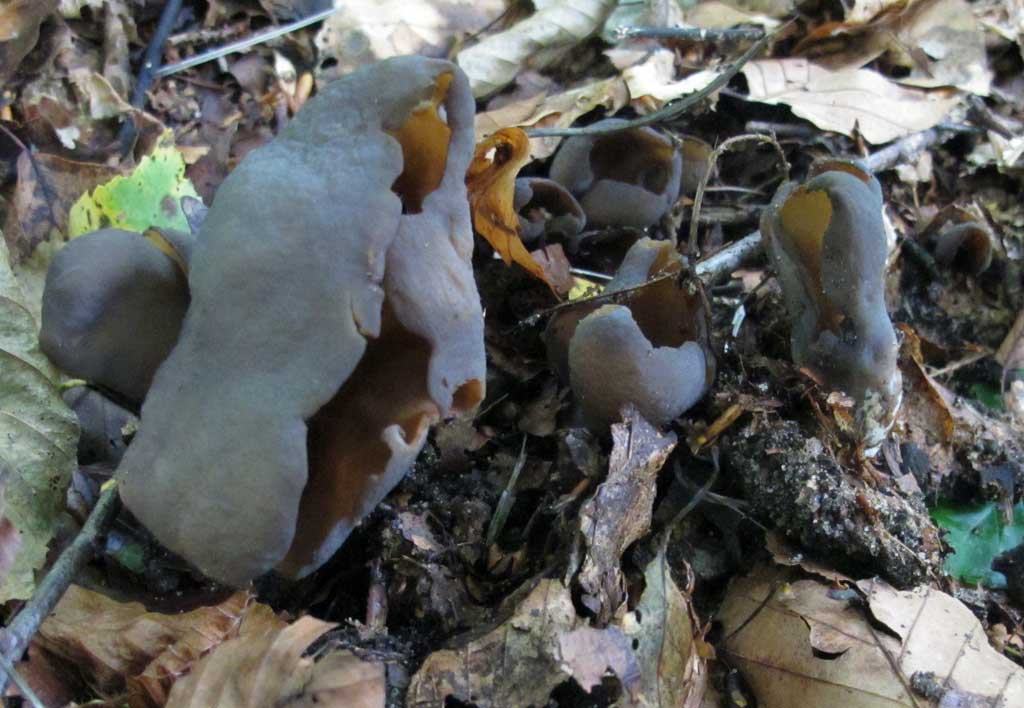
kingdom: Fungi
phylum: Ascomycota
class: Pezizomycetes
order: Pezizales
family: Otideaceae
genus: Otidea
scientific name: Otidea bufonia
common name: brun ørebæger
